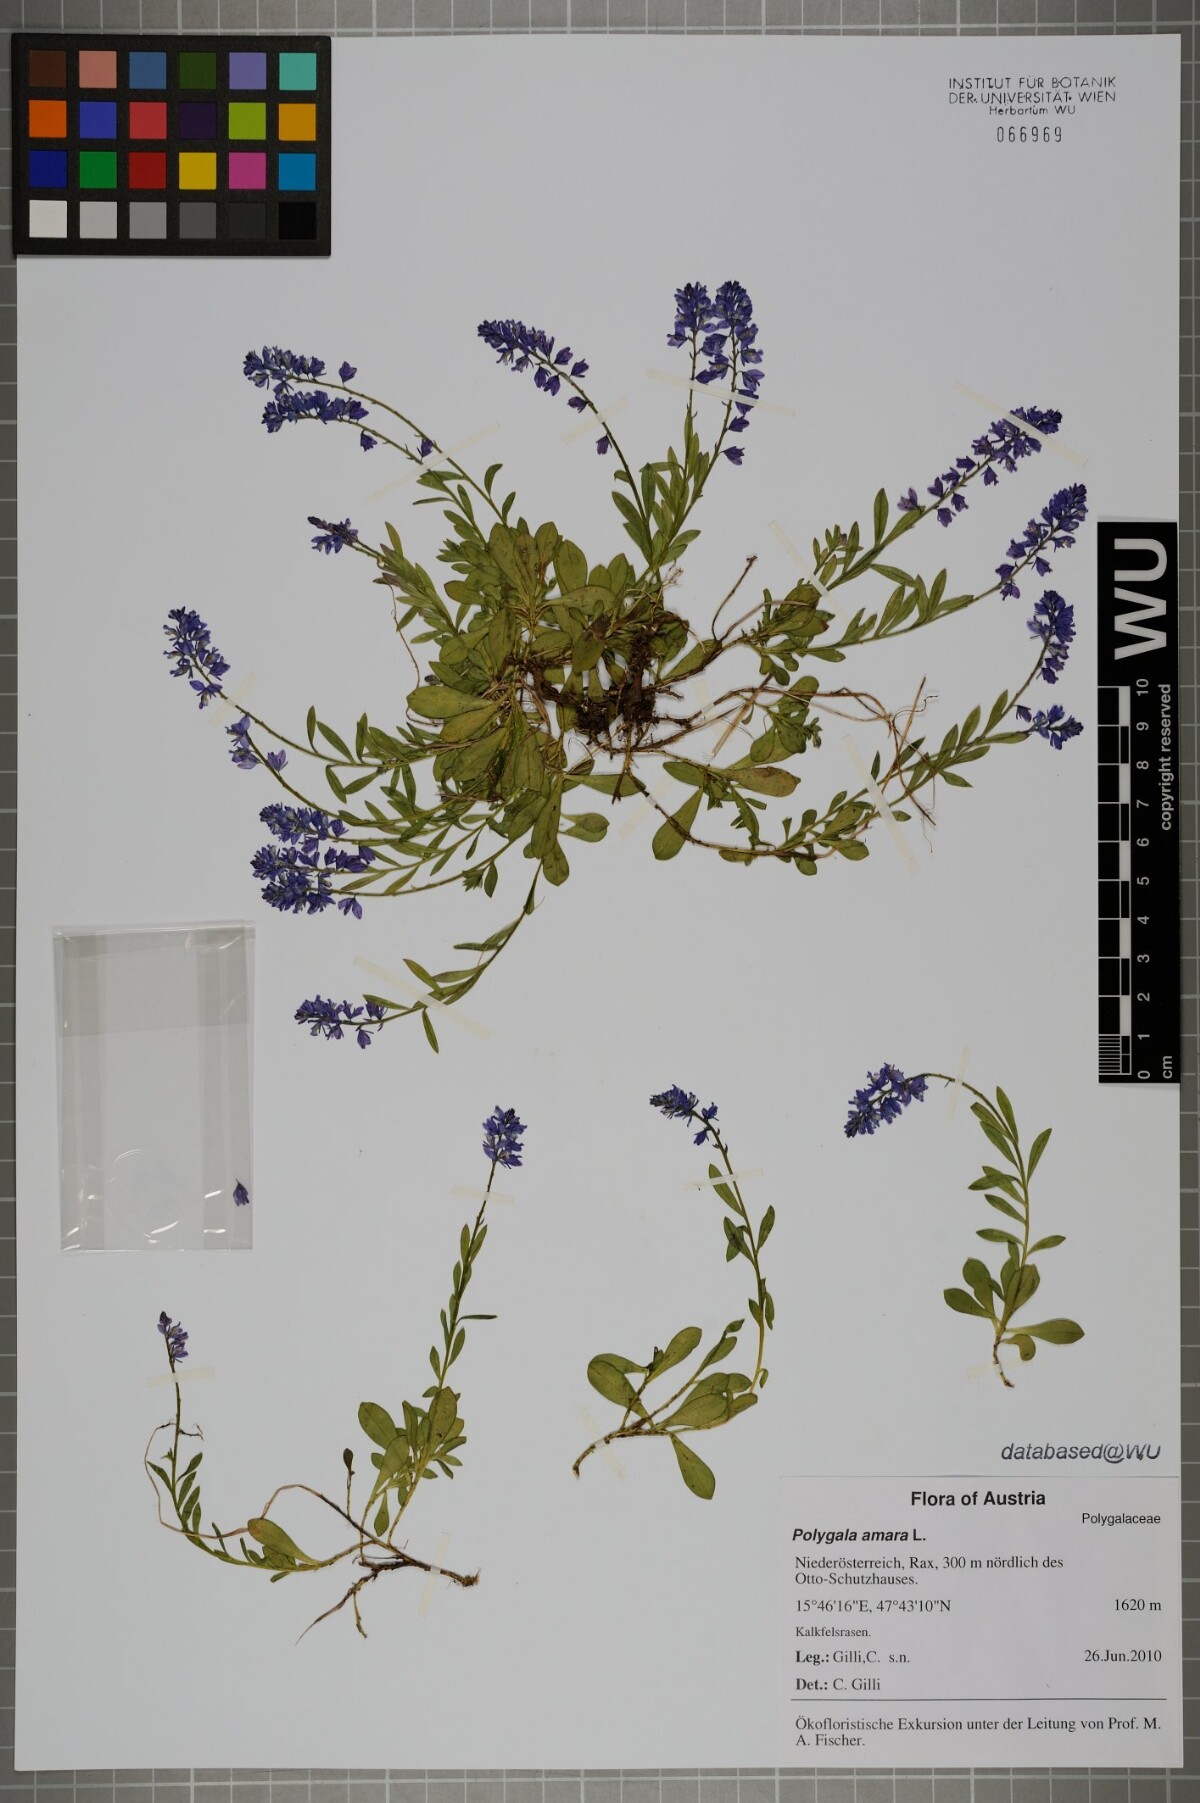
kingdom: Plantae
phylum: Tracheophyta
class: Magnoliopsida
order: Fabales
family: Polygalaceae
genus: Polygala
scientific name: Polygala amara
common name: Milkwort
